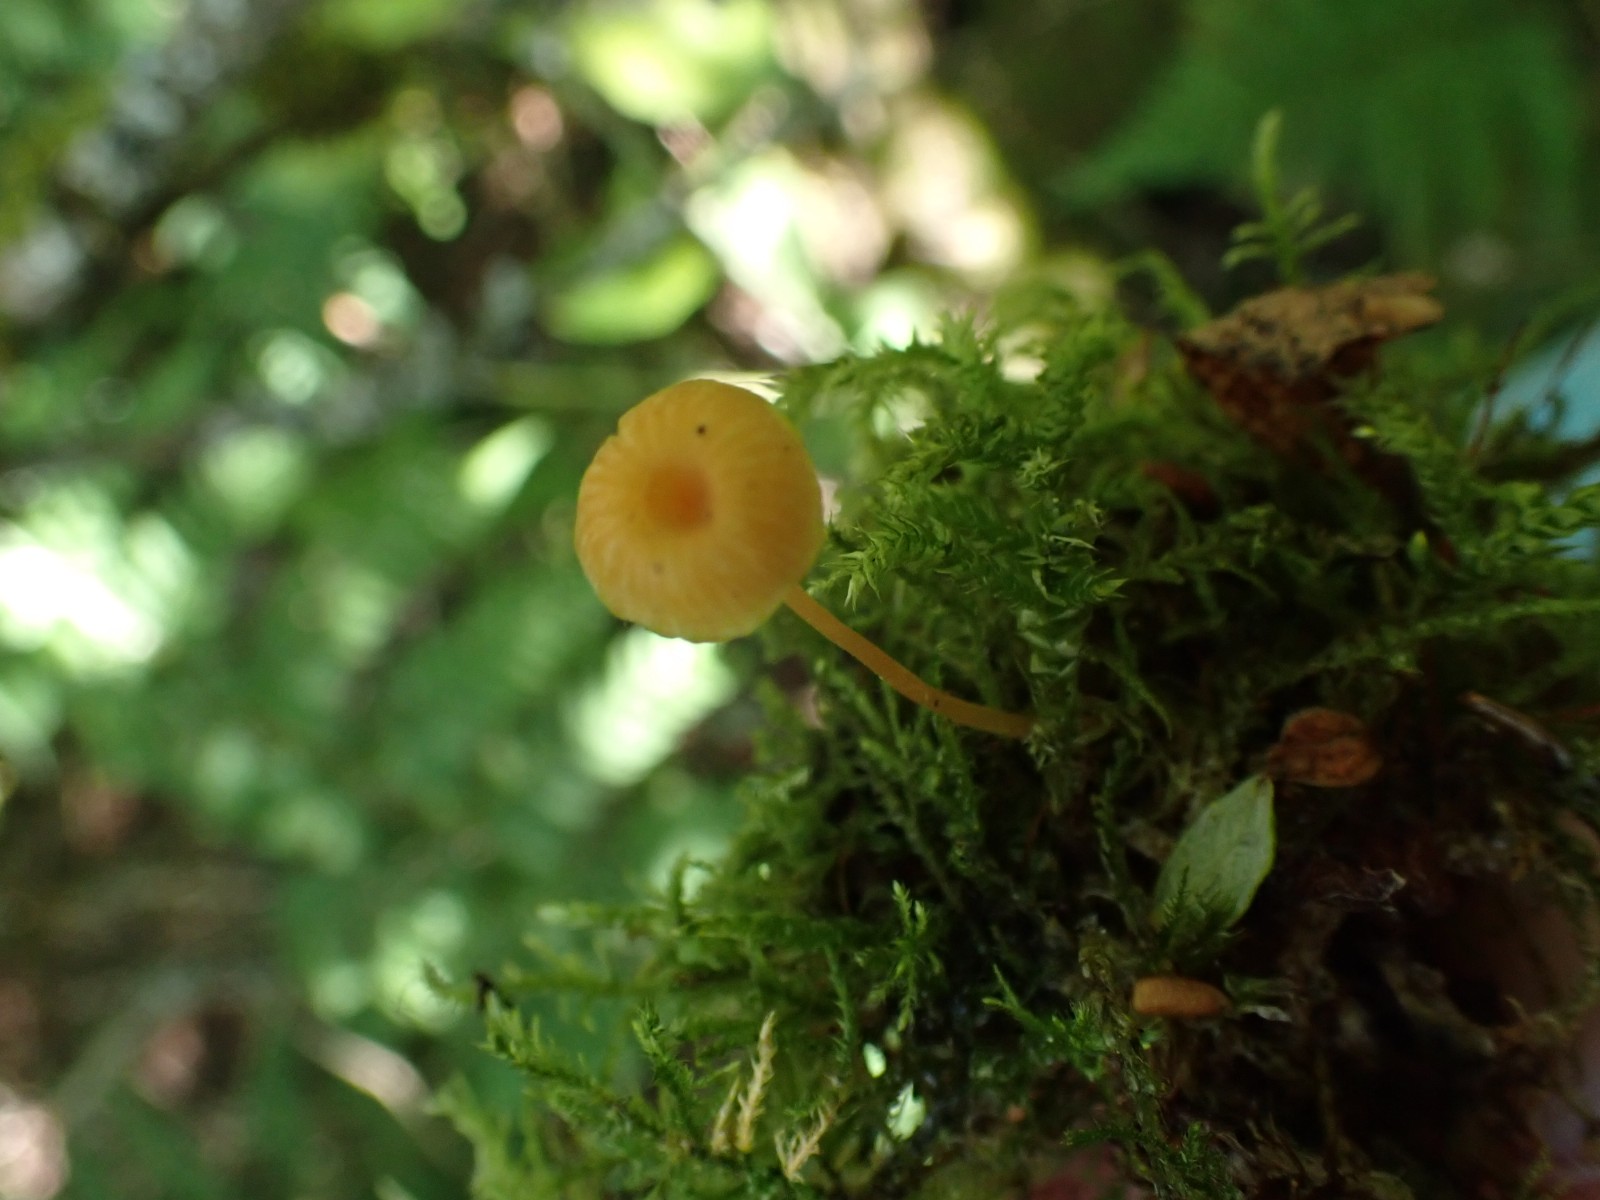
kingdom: Fungi
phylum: Basidiomycota
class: Agaricomycetes
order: Hymenochaetales
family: Rickenellaceae
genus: Rickenella
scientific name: Rickenella fibula
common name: orange mosnavlehat
